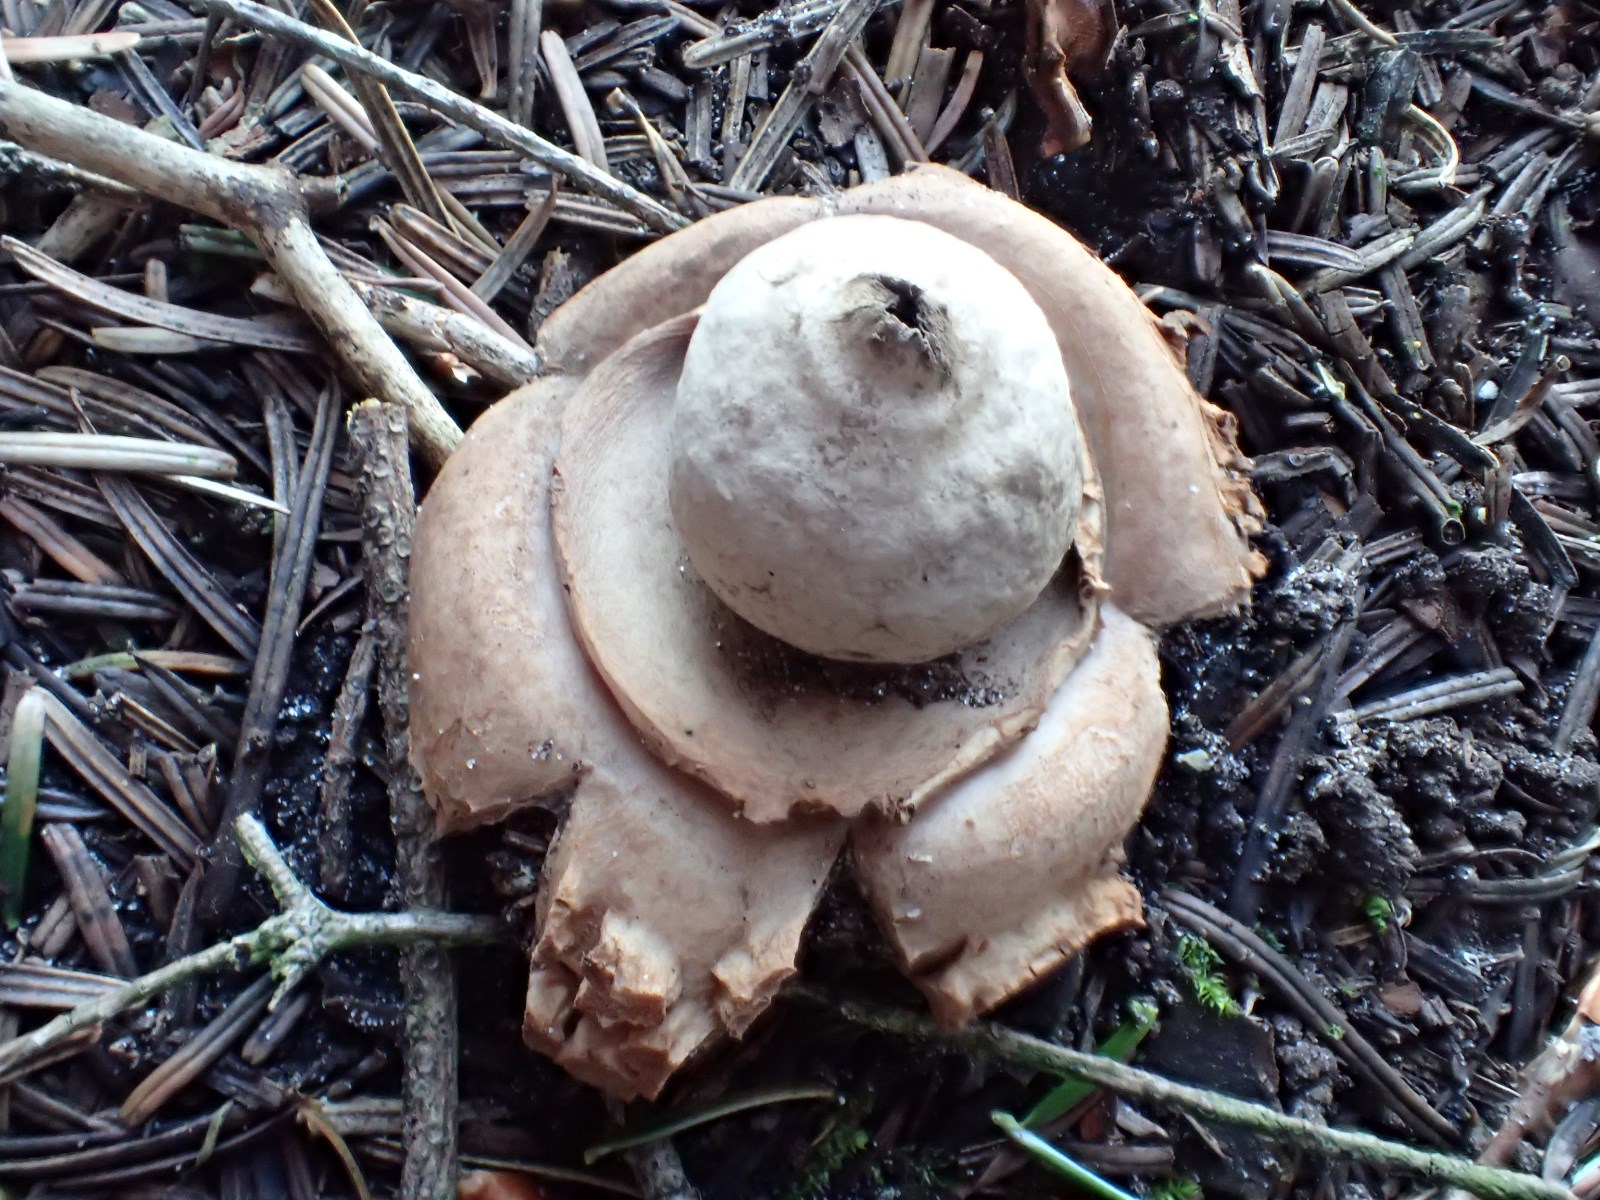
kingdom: Fungi
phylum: Basidiomycota
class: Agaricomycetes
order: Geastrales
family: Geastraceae
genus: Geastrum
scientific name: Geastrum michelianum
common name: kødet stjernebold
